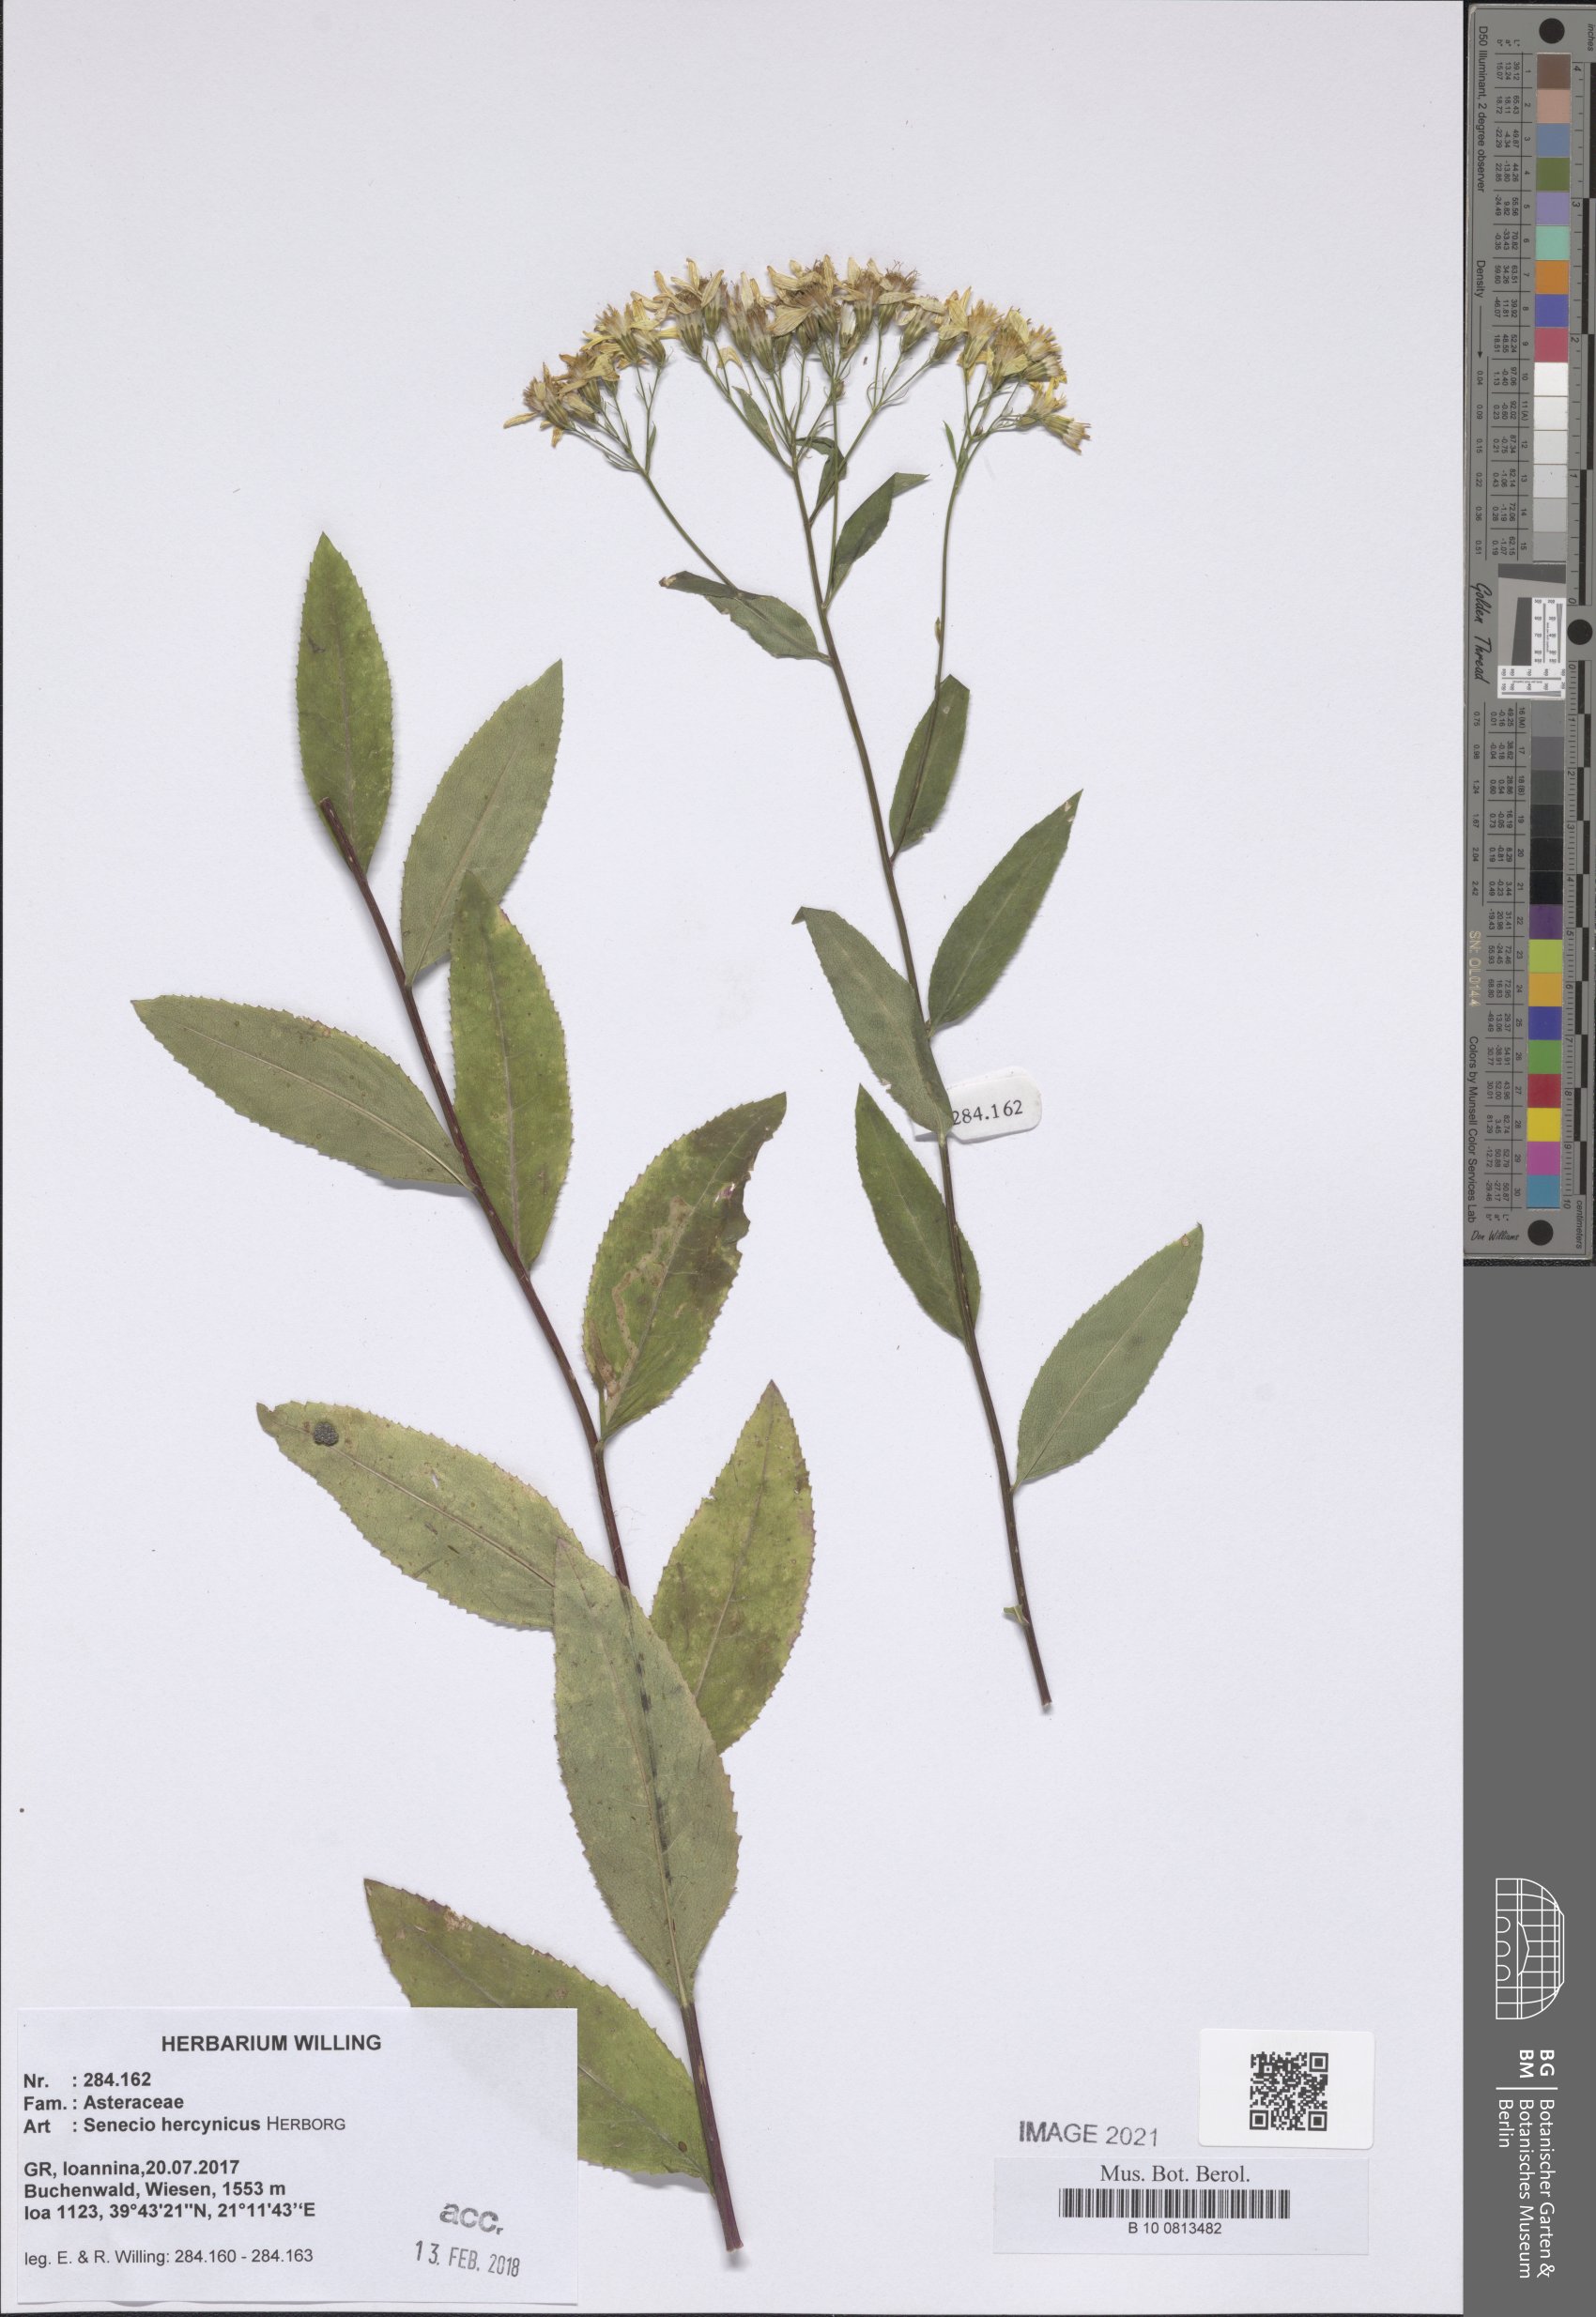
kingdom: Plantae
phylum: Tracheophyta
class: Magnoliopsida
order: Asterales
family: Asteraceae
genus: Senecio
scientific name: Senecio hercynicus
